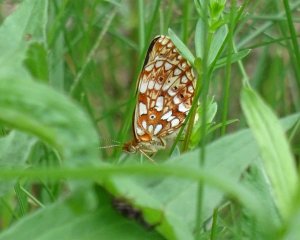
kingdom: Animalia
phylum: Arthropoda
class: Insecta
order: Lepidoptera
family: Nymphalidae
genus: Boloria
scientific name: Boloria selene
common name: Silver-bordered Fritillary
